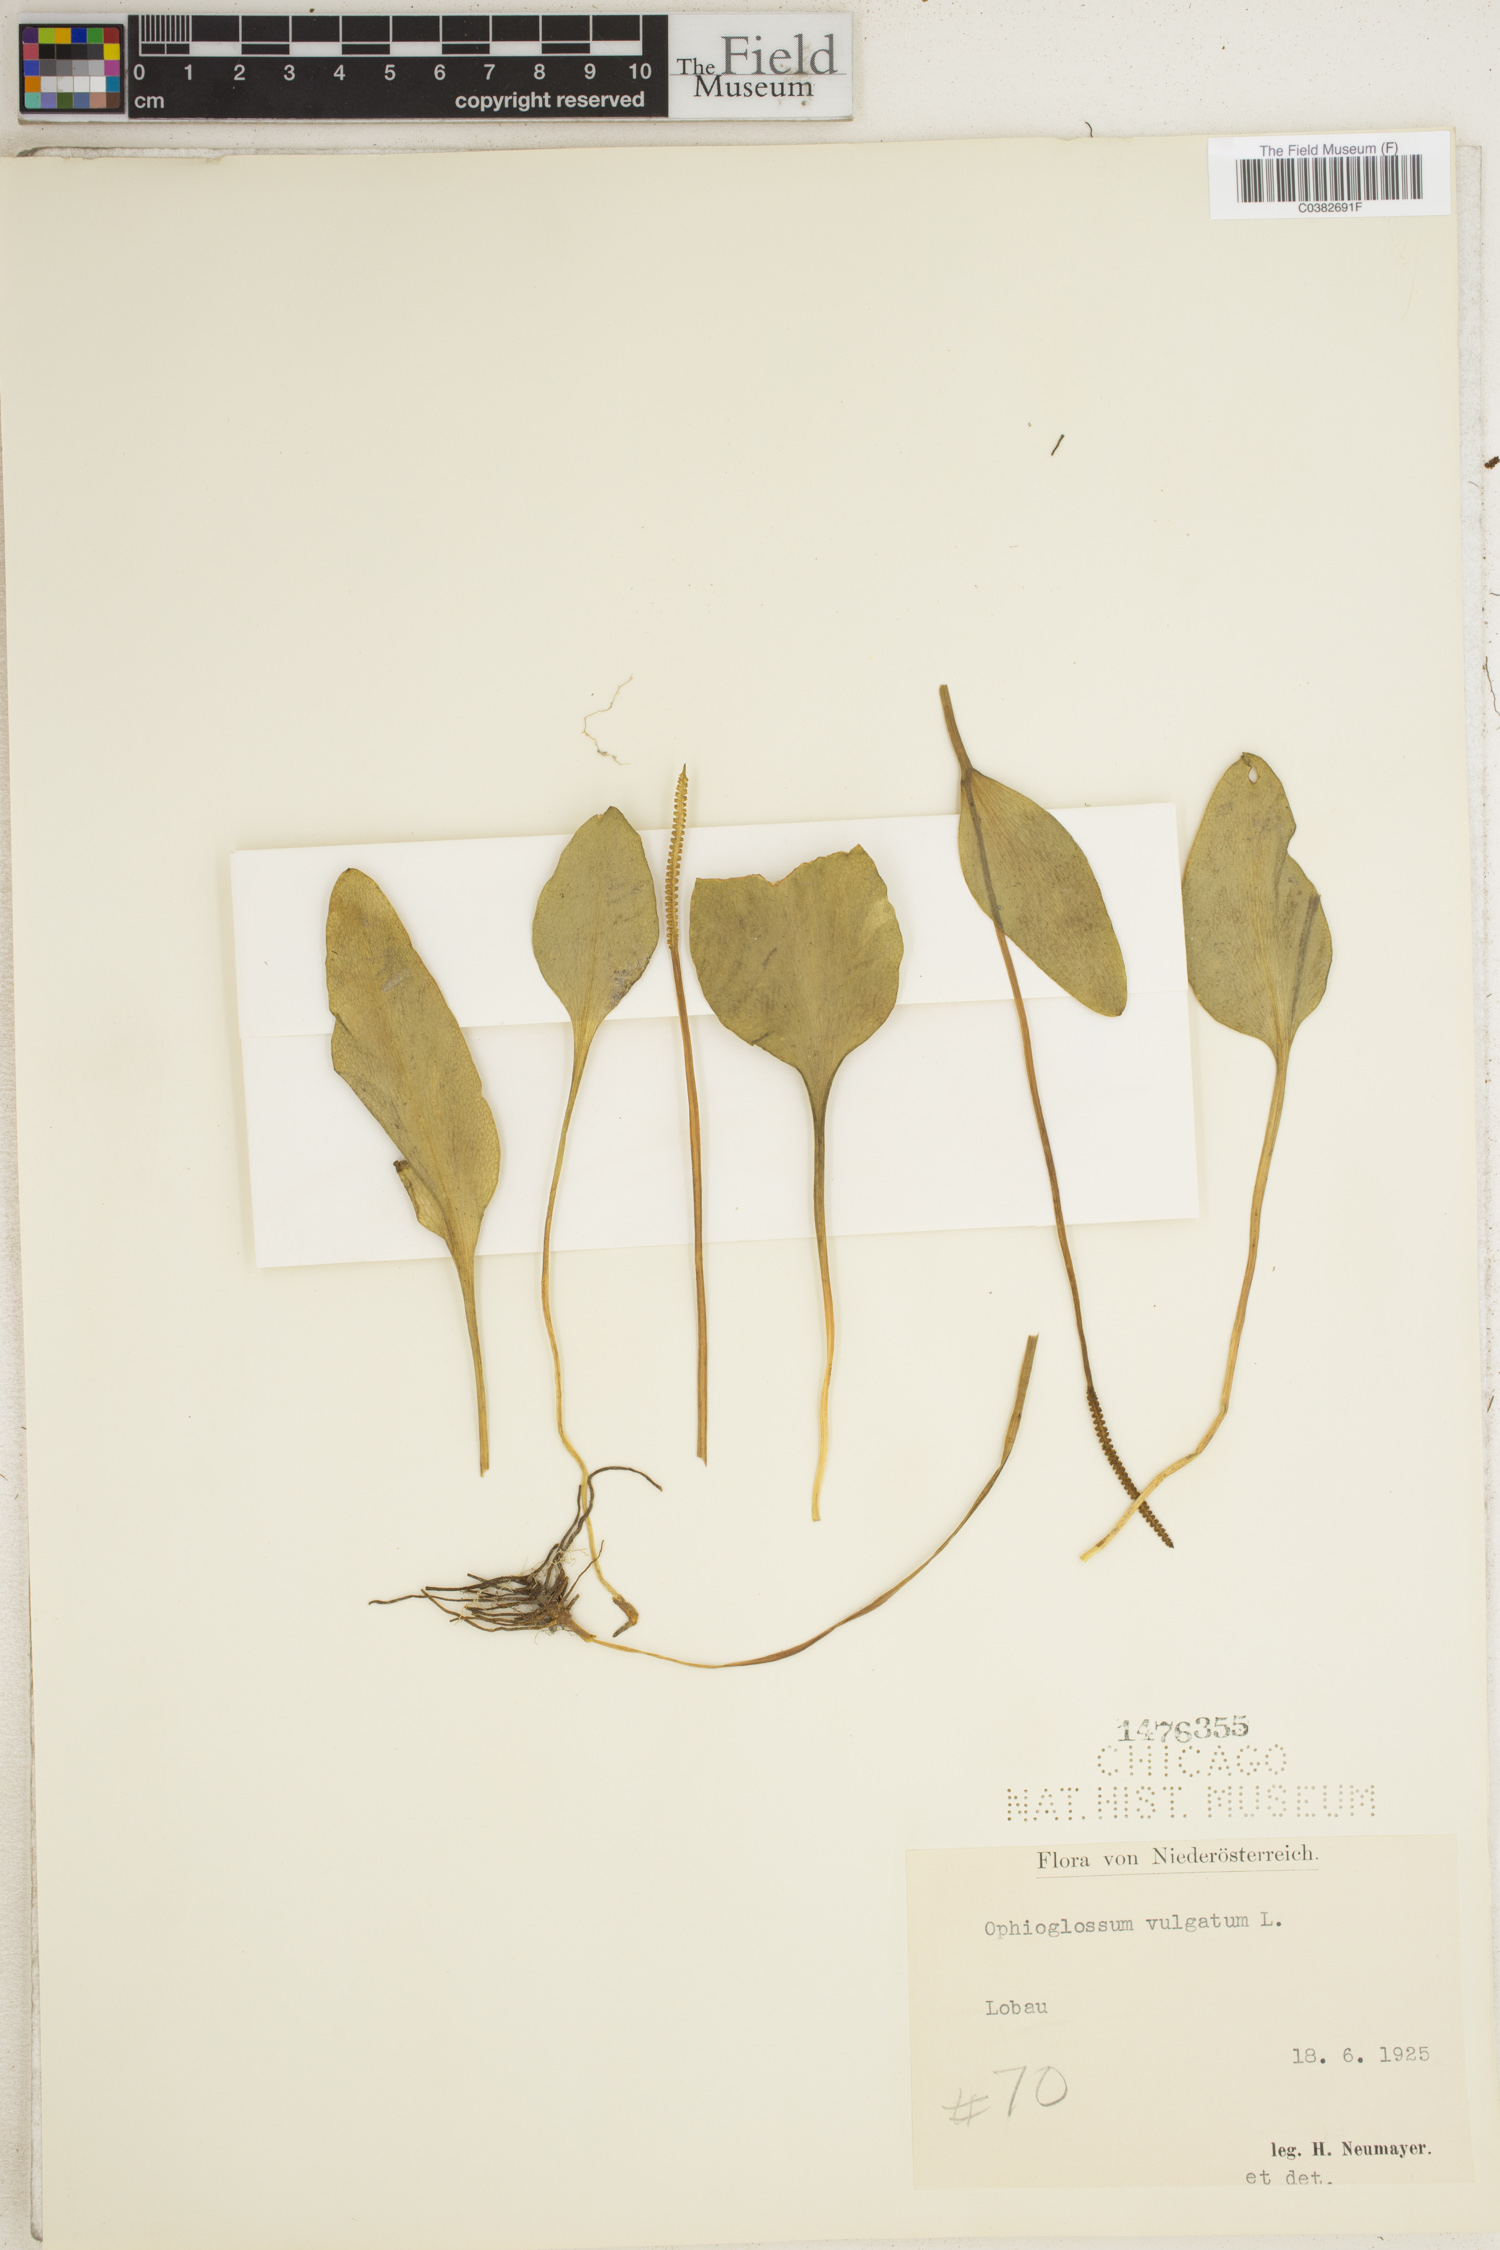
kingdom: Plantae
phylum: Tracheophyta
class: Polypodiopsida
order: Ophioglossales
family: Ophioglossaceae
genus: Ophioglossum
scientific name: Ophioglossum vulgatum
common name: Adder's-tongue
